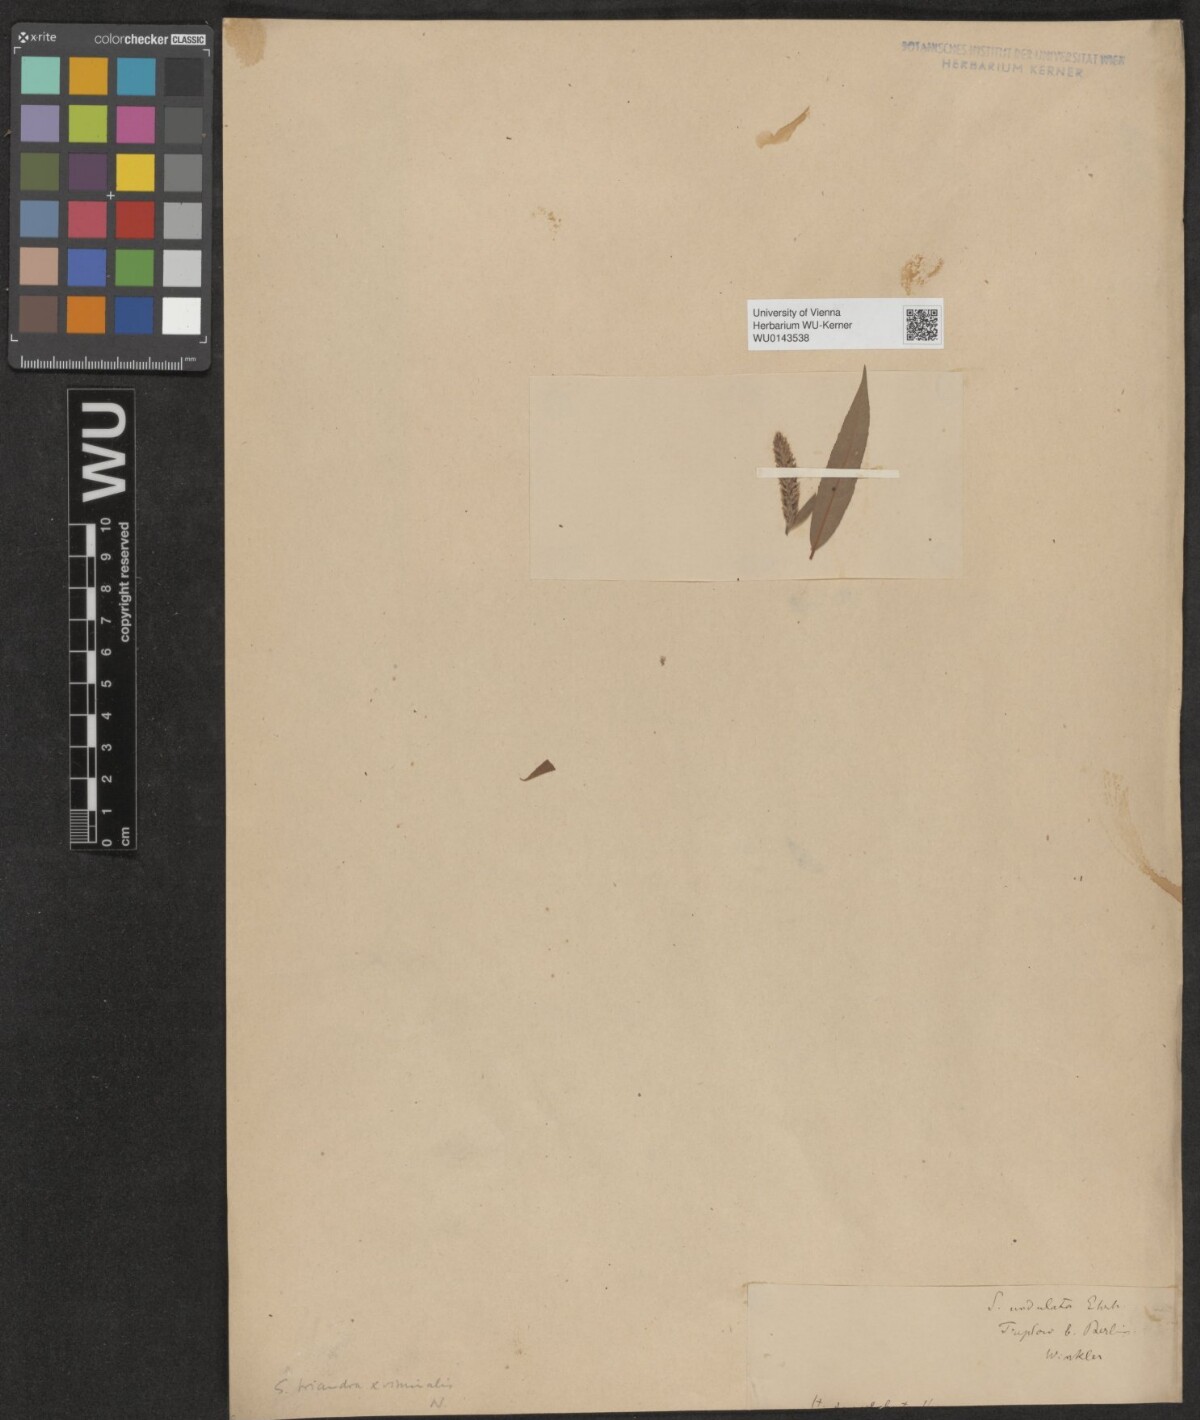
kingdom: Plantae
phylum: Tracheophyta
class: Magnoliopsida
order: Malpighiales
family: Salicaceae
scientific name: Salicaceae
